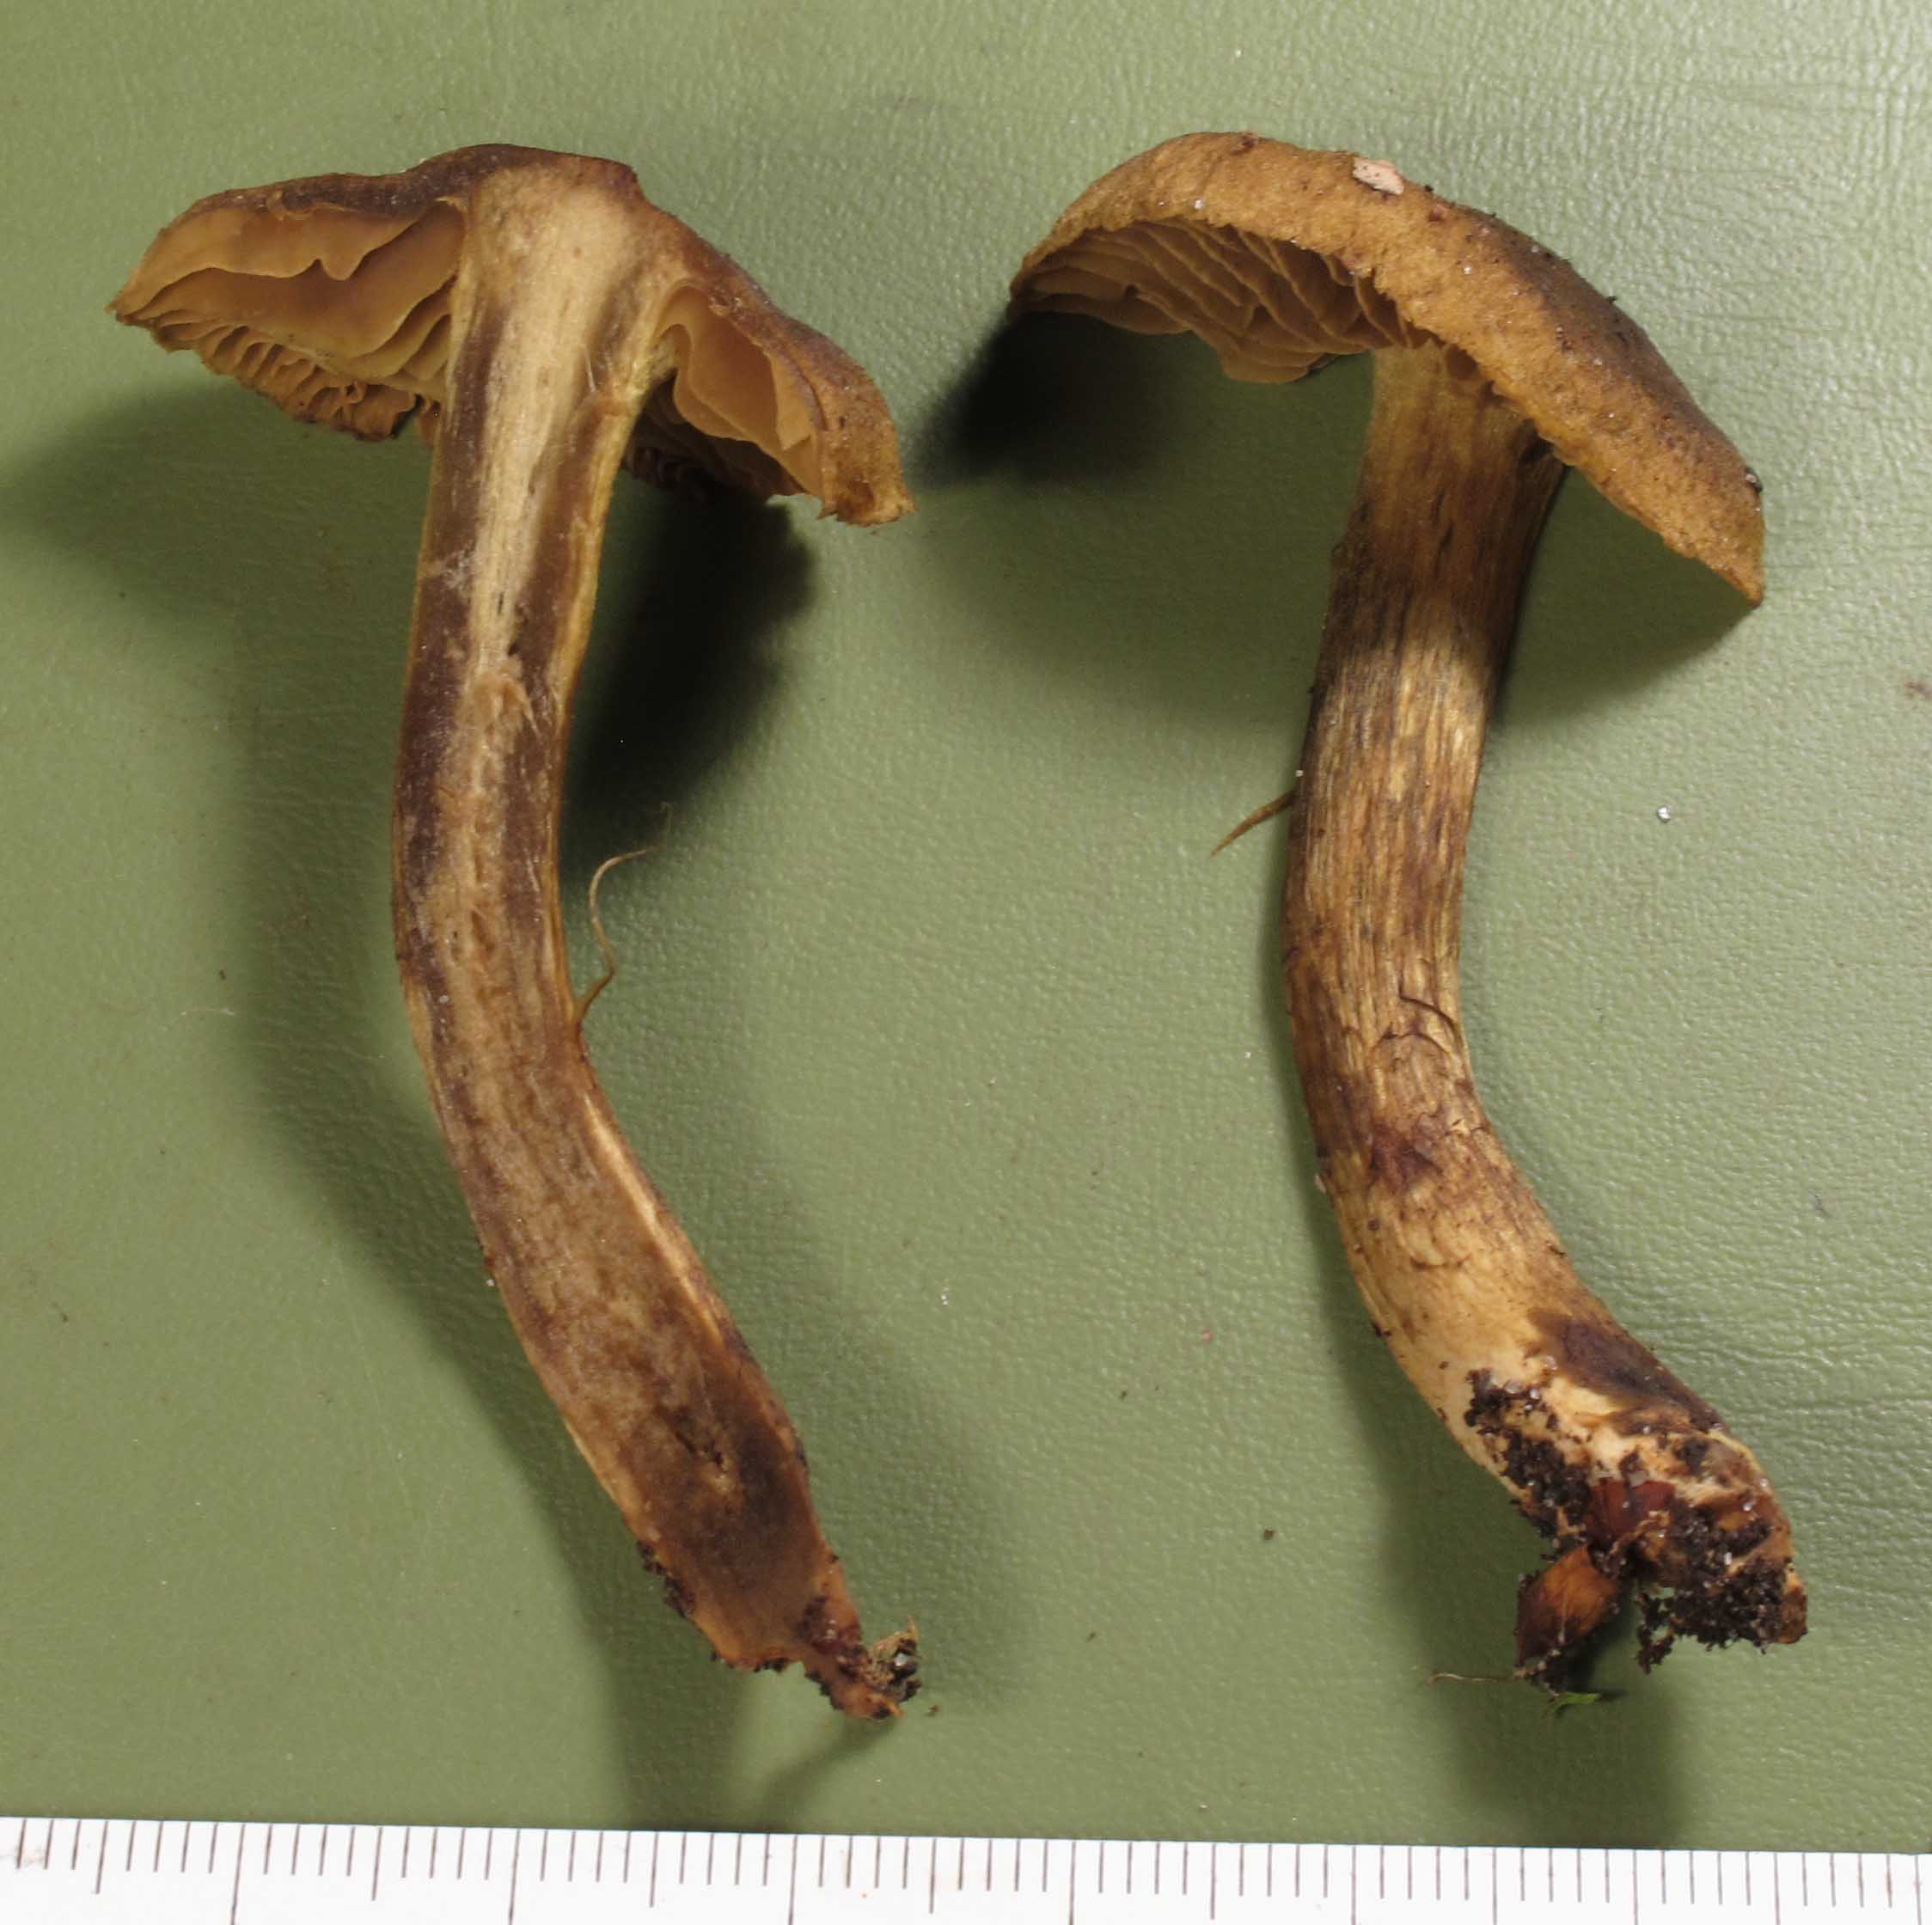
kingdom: Fungi
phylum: Basidiomycota
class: Agaricomycetes
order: Agaricales
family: Cortinariaceae
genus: Cortinarius
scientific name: Cortinarius olivaceofuscus
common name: olivenbrun slørhat
